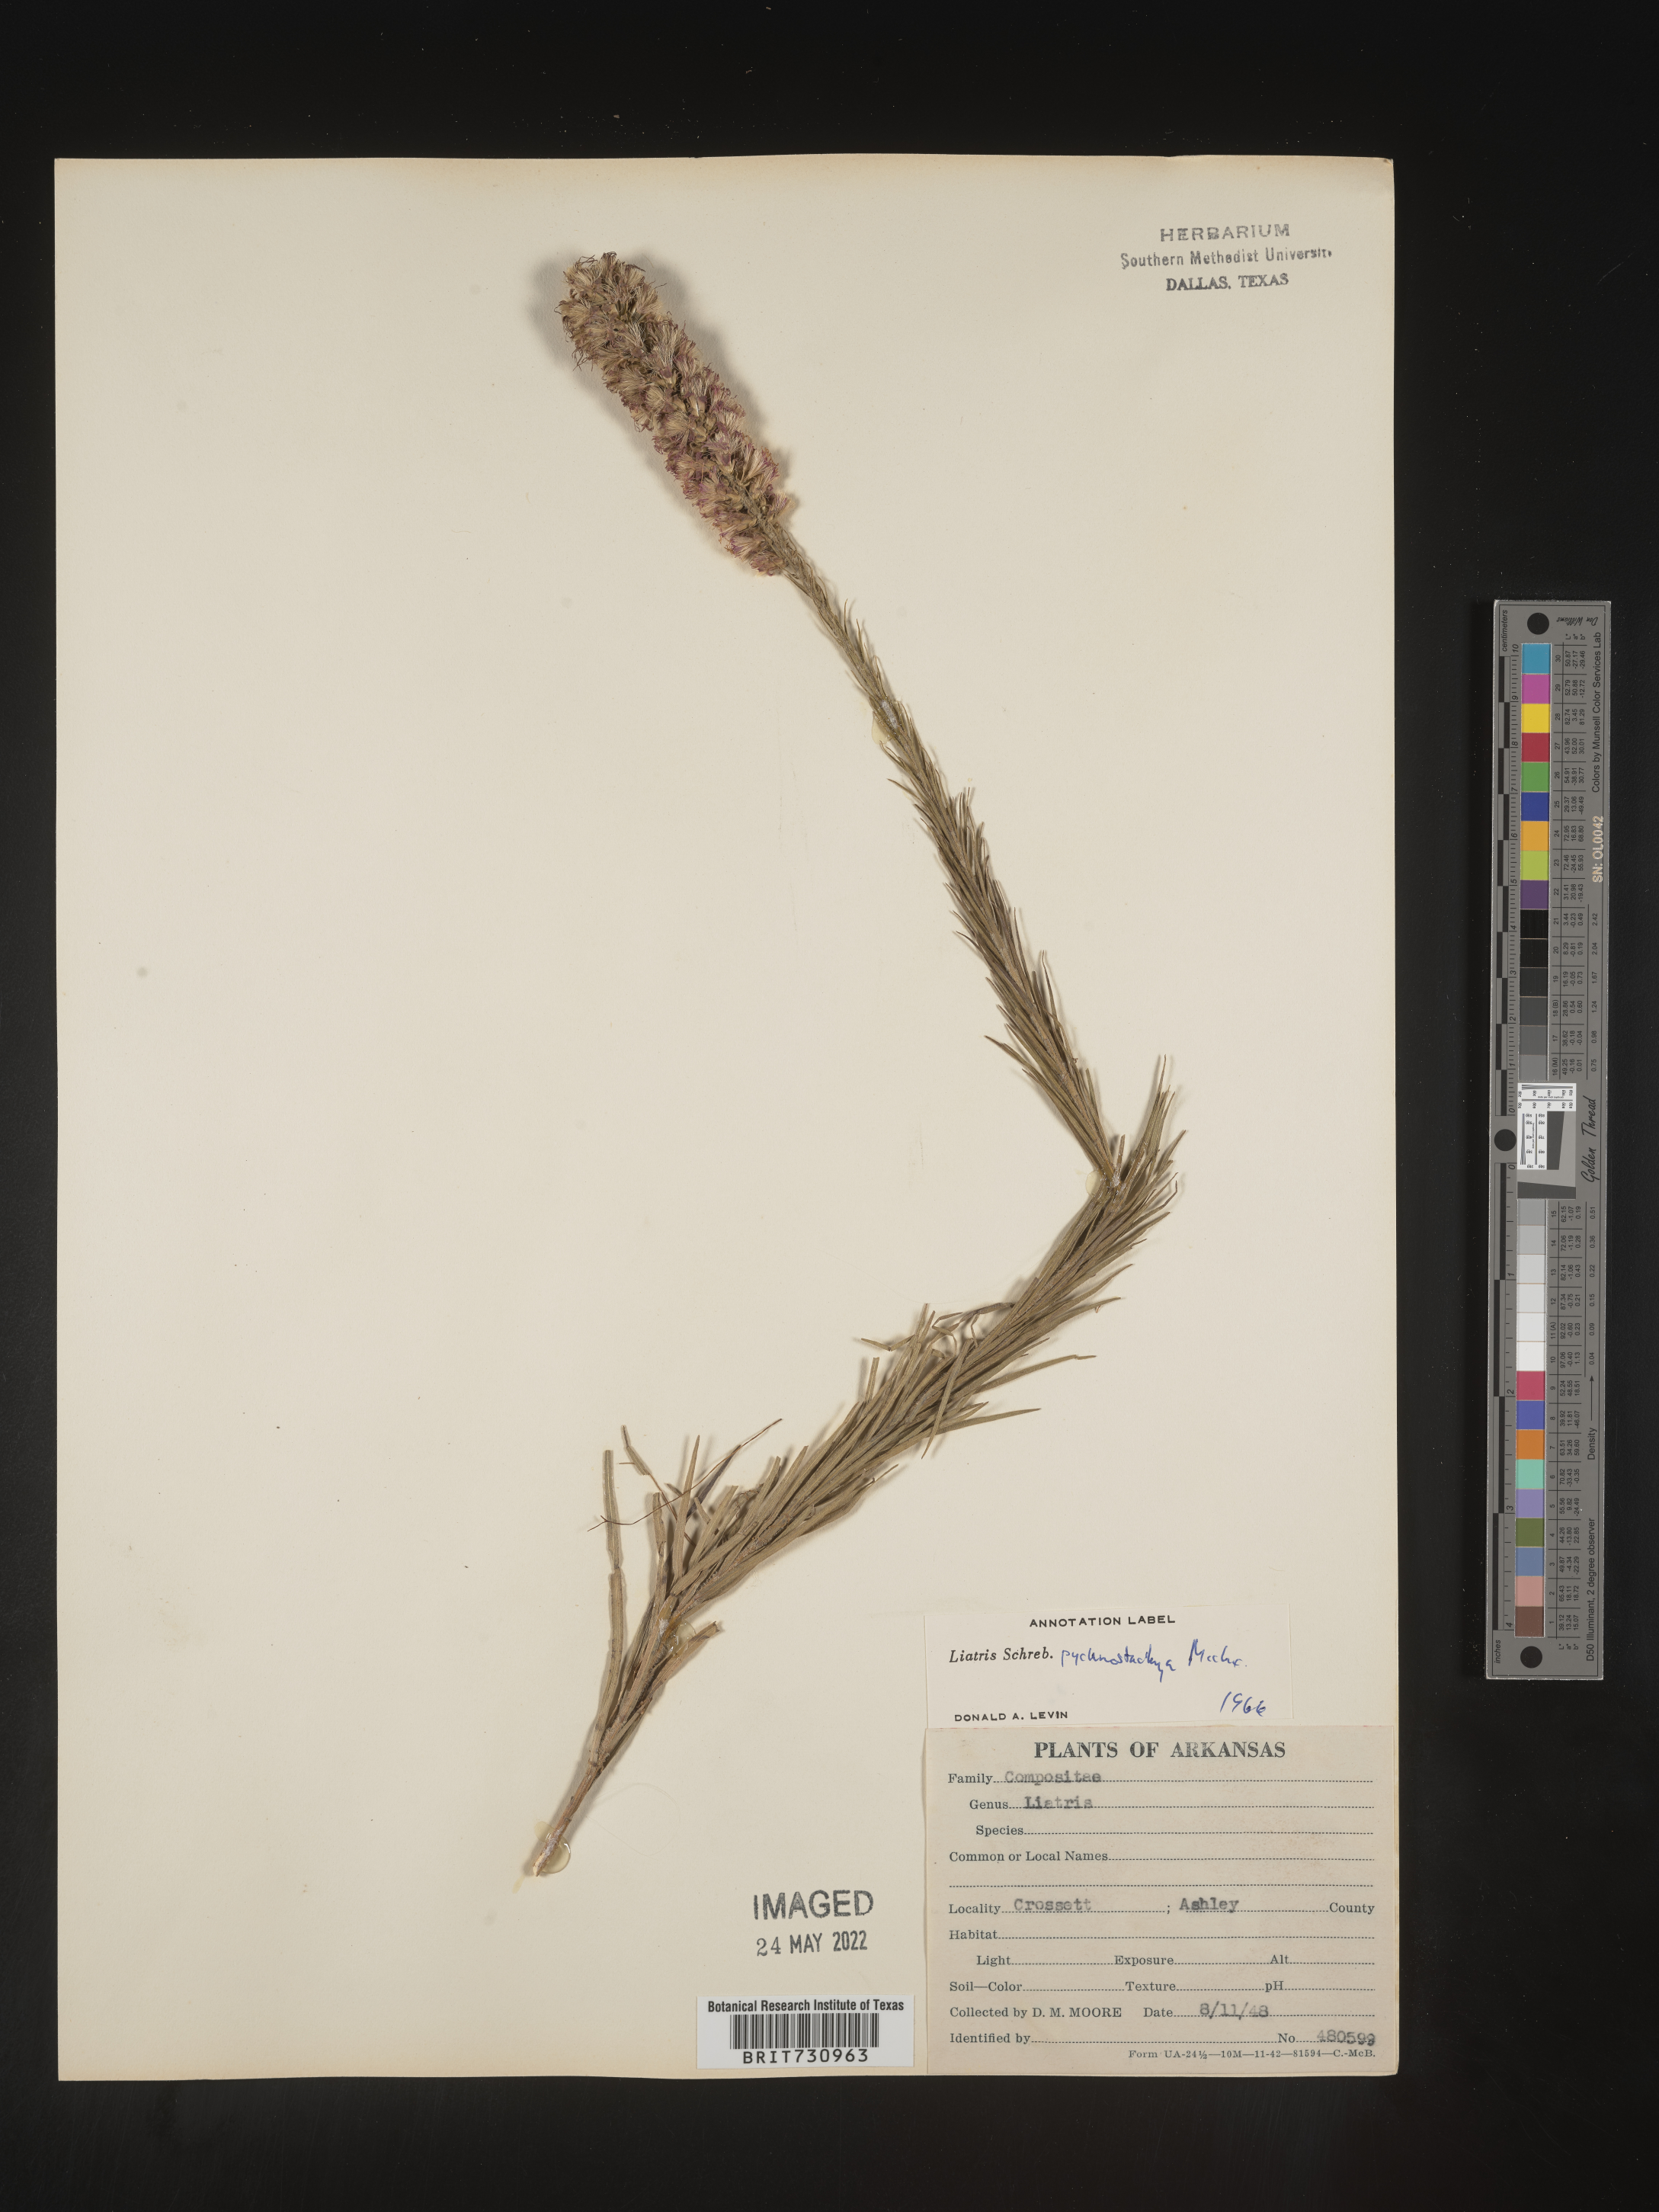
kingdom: Plantae
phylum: Tracheophyta
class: Magnoliopsida
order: Asterales
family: Asteraceae
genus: Liatris
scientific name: Liatris pycnostachya
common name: Cattail gayfeather
